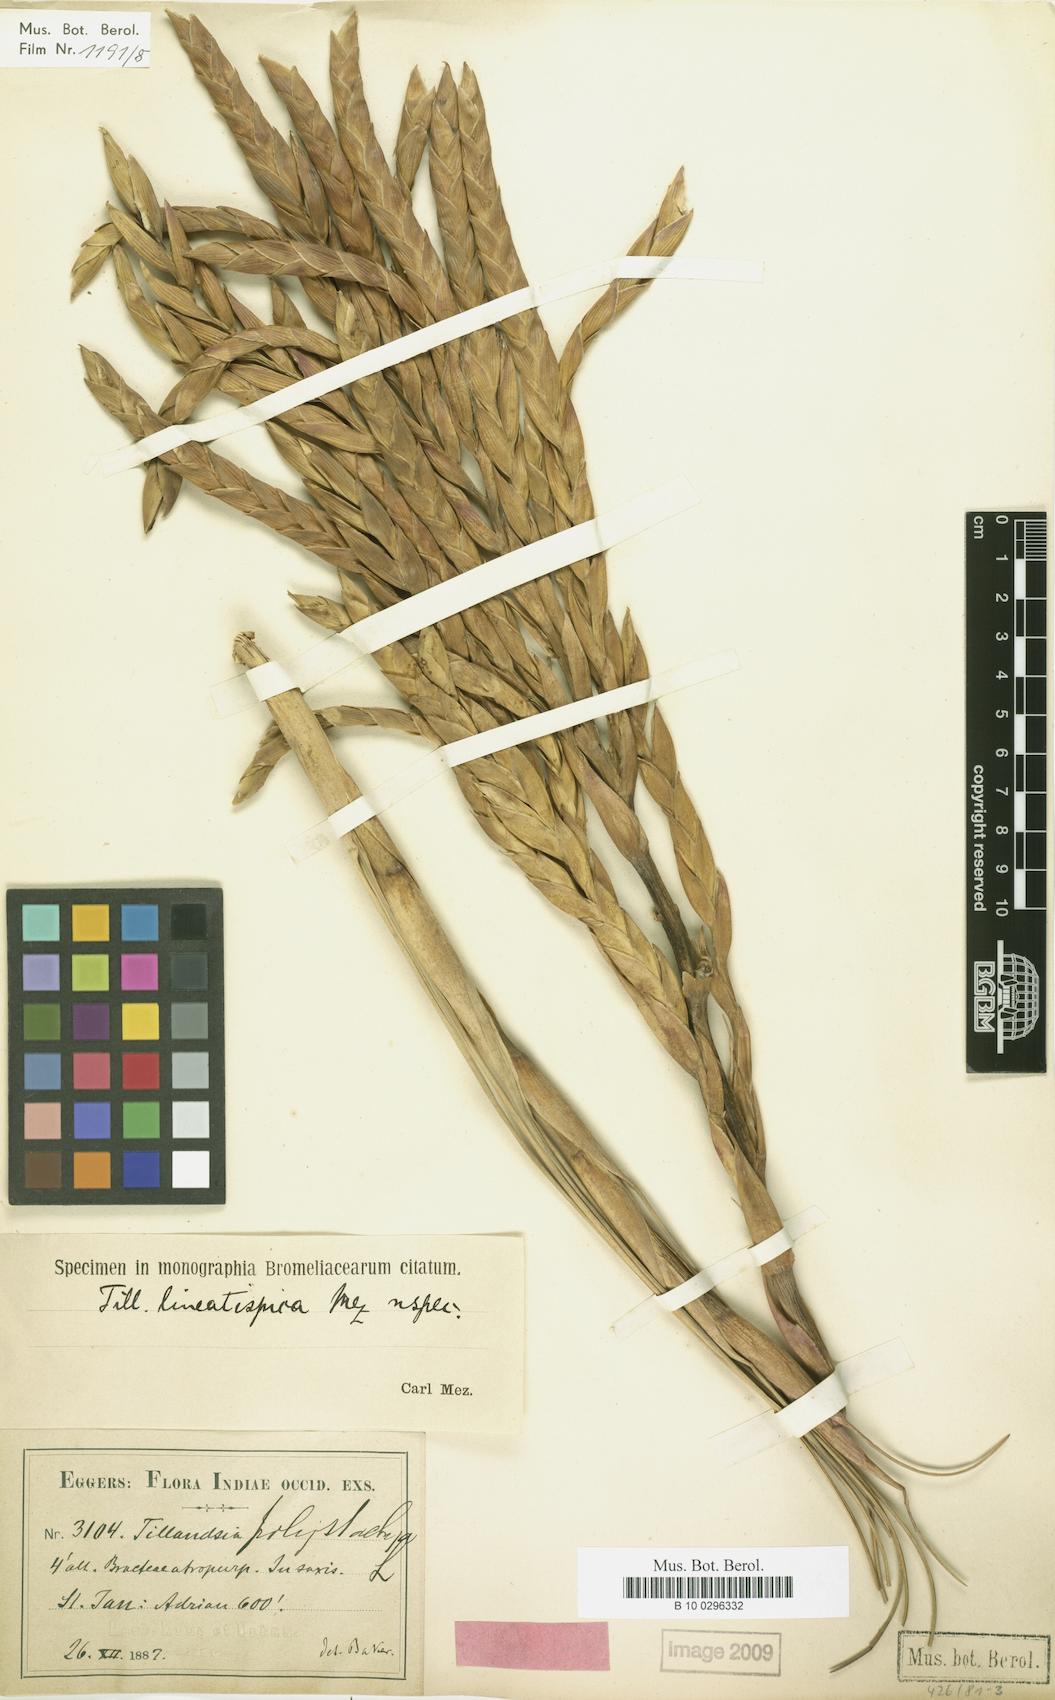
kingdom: Plantae
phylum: Tracheophyta
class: Liliopsida
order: Poales
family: Bromeliaceae
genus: Tillandsia
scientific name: Tillandsia lineatispica
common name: Pinon
